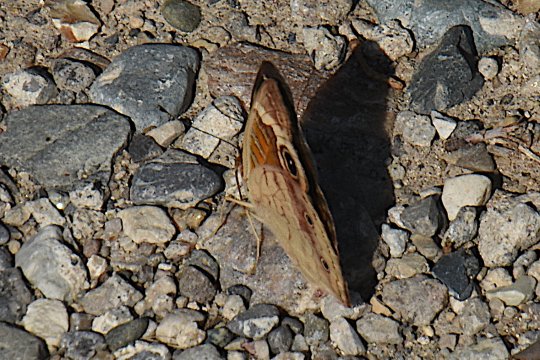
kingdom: Animalia
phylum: Arthropoda
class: Insecta
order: Lepidoptera
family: Nymphalidae
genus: Junonia
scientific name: Junonia coenia
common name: Common Buckeye
